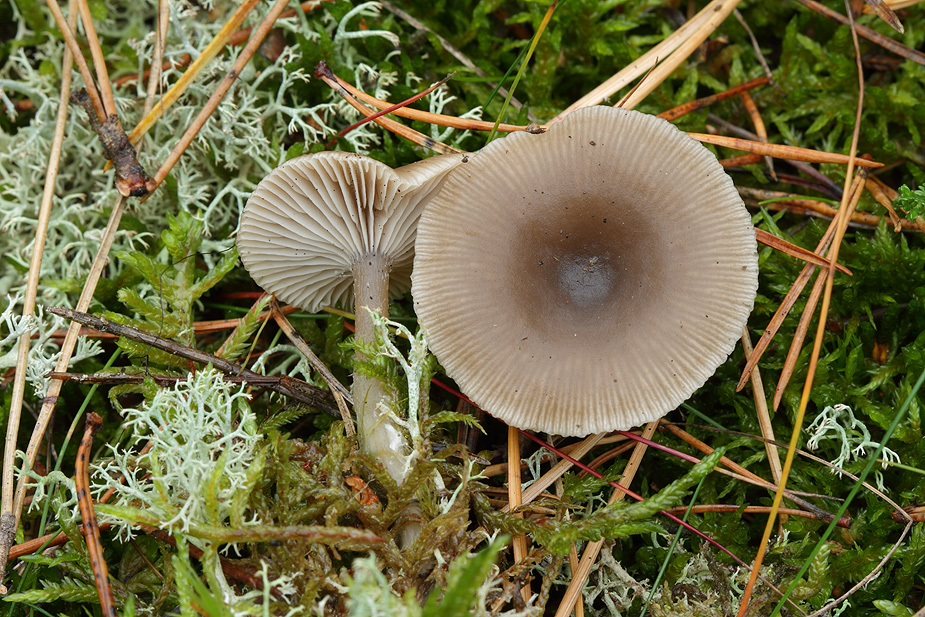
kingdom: Fungi
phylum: Basidiomycota
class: Agaricomycetes
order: Agaricales
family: Tricholomataceae
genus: Clitocybe
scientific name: Clitocybe vibecina
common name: randstribet tragthat
